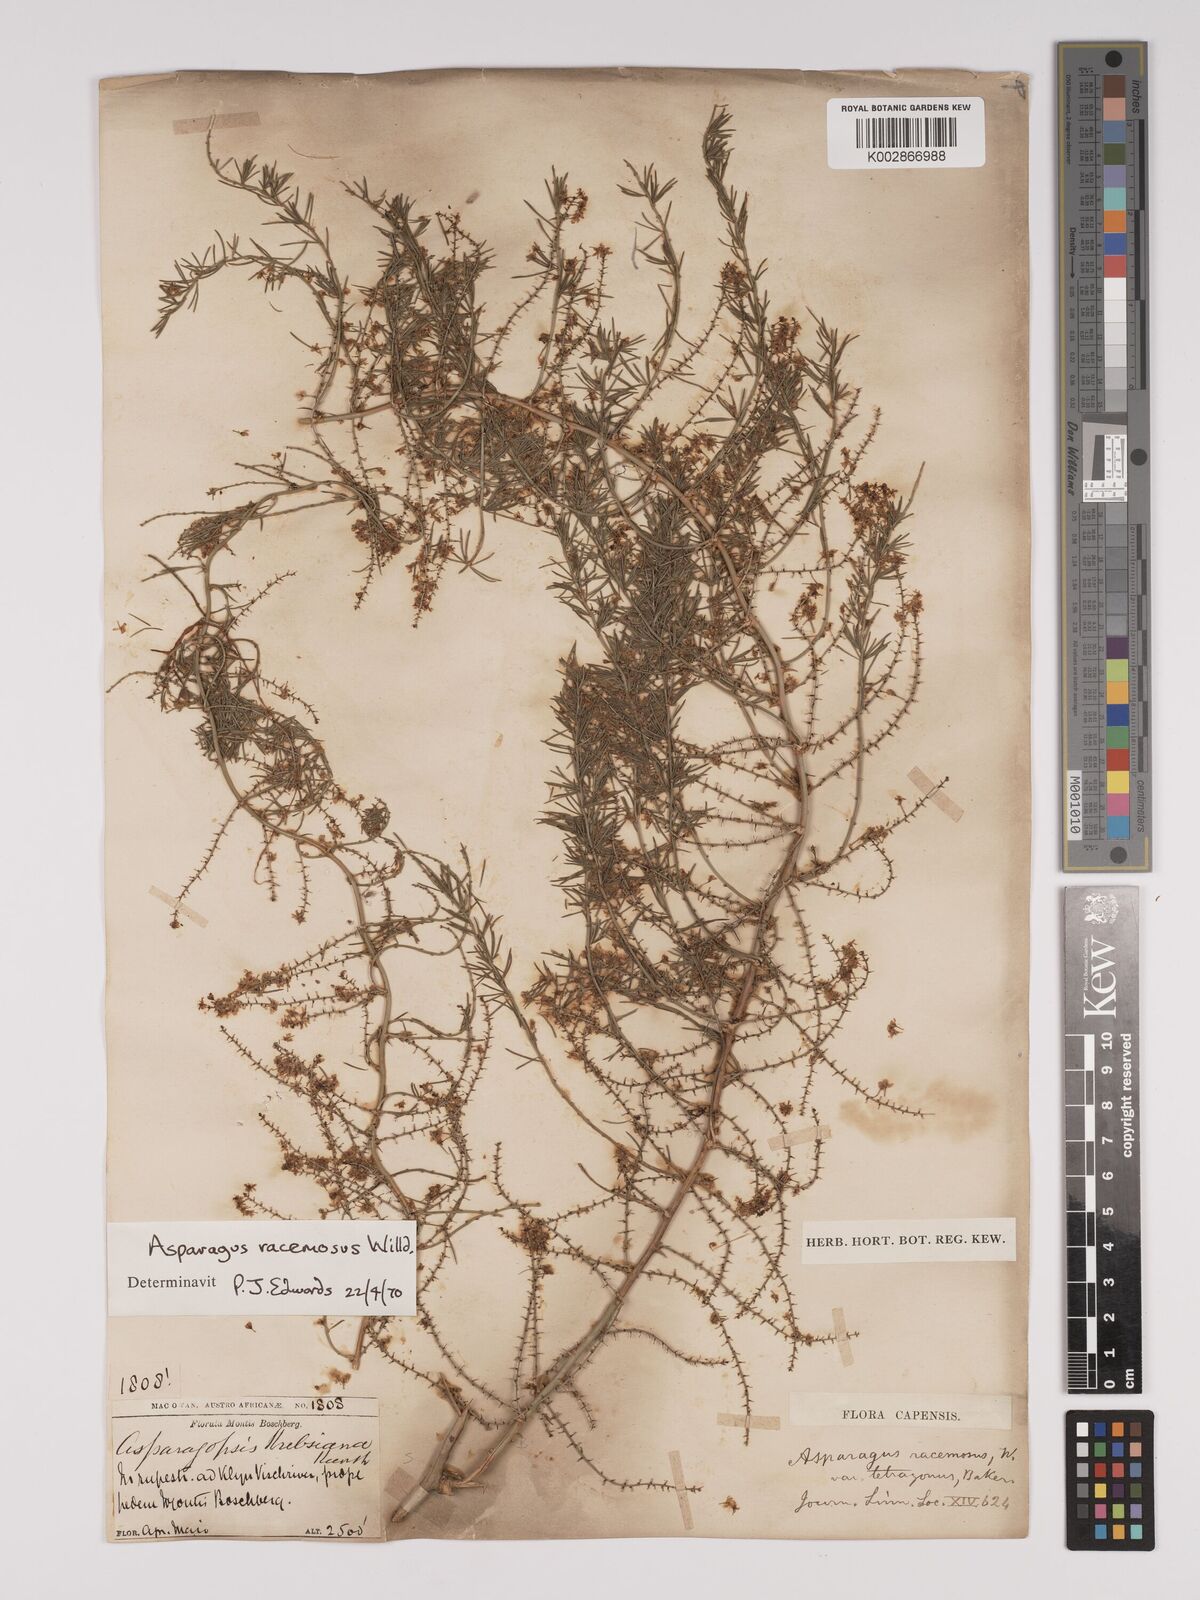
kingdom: Plantae
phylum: Tracheophyta
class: Liliopsida
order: Asparagales
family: Asparagaceae
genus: Asparagus
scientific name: Asparagus racemosus
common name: Asparagus-fern
